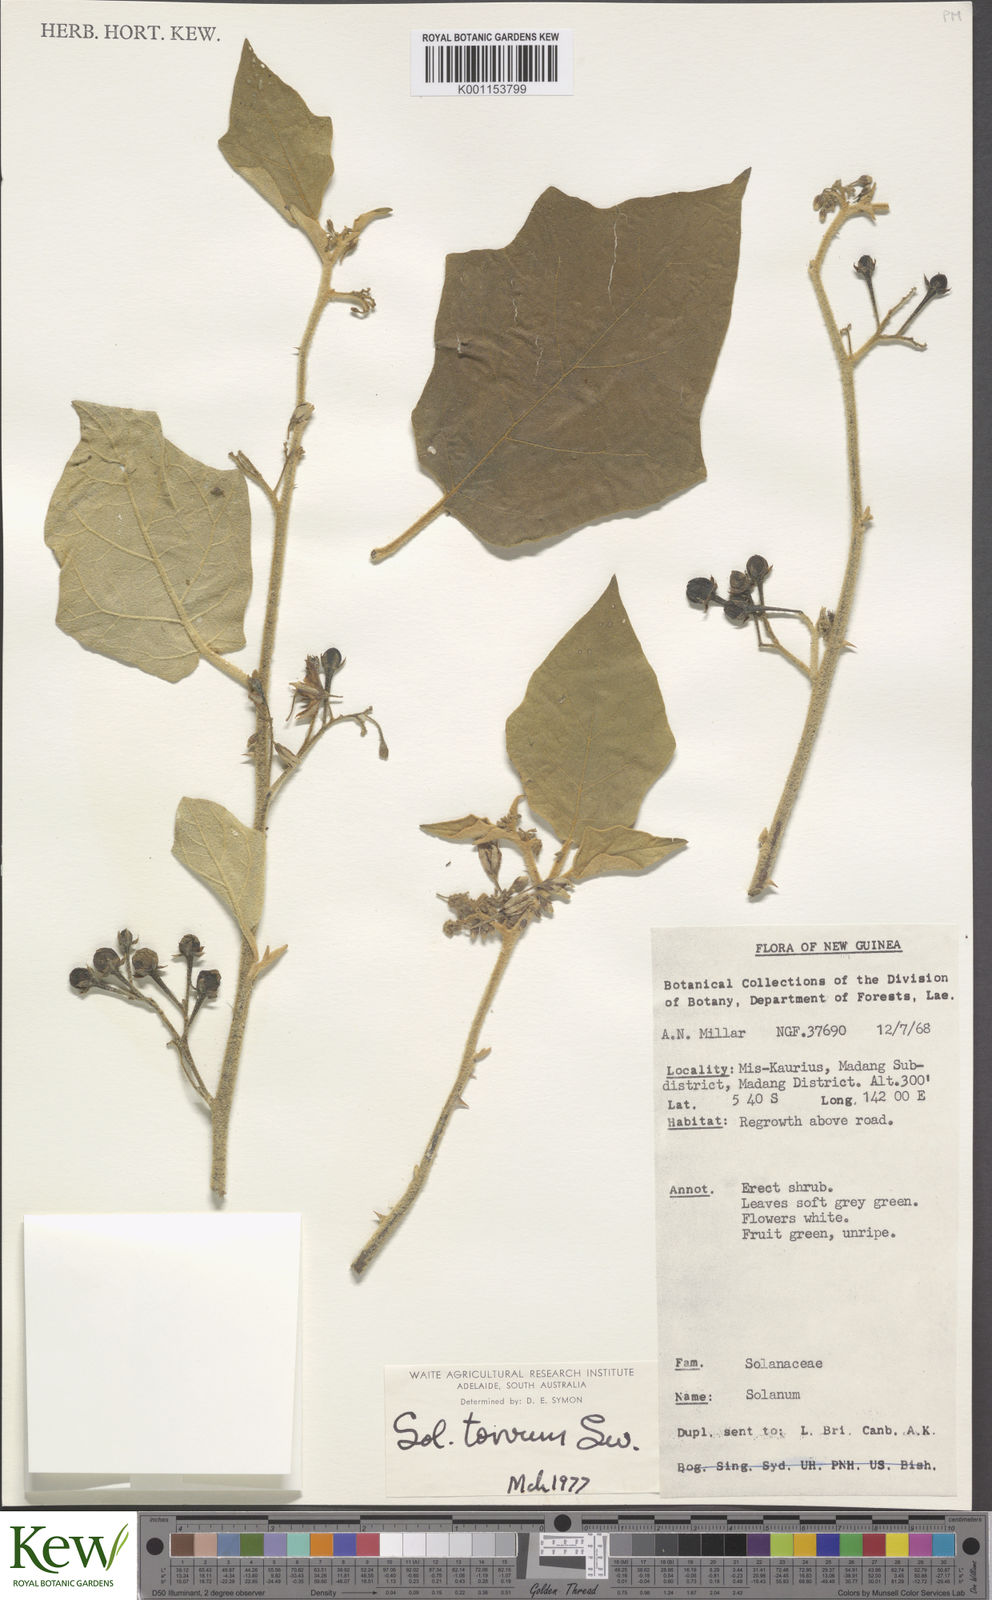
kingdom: Plantae
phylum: Tracheophyta
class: Magnoliopsida
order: Solanales
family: Solanaceae
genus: Solanum
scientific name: Solanum torvum
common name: Turkey berry
